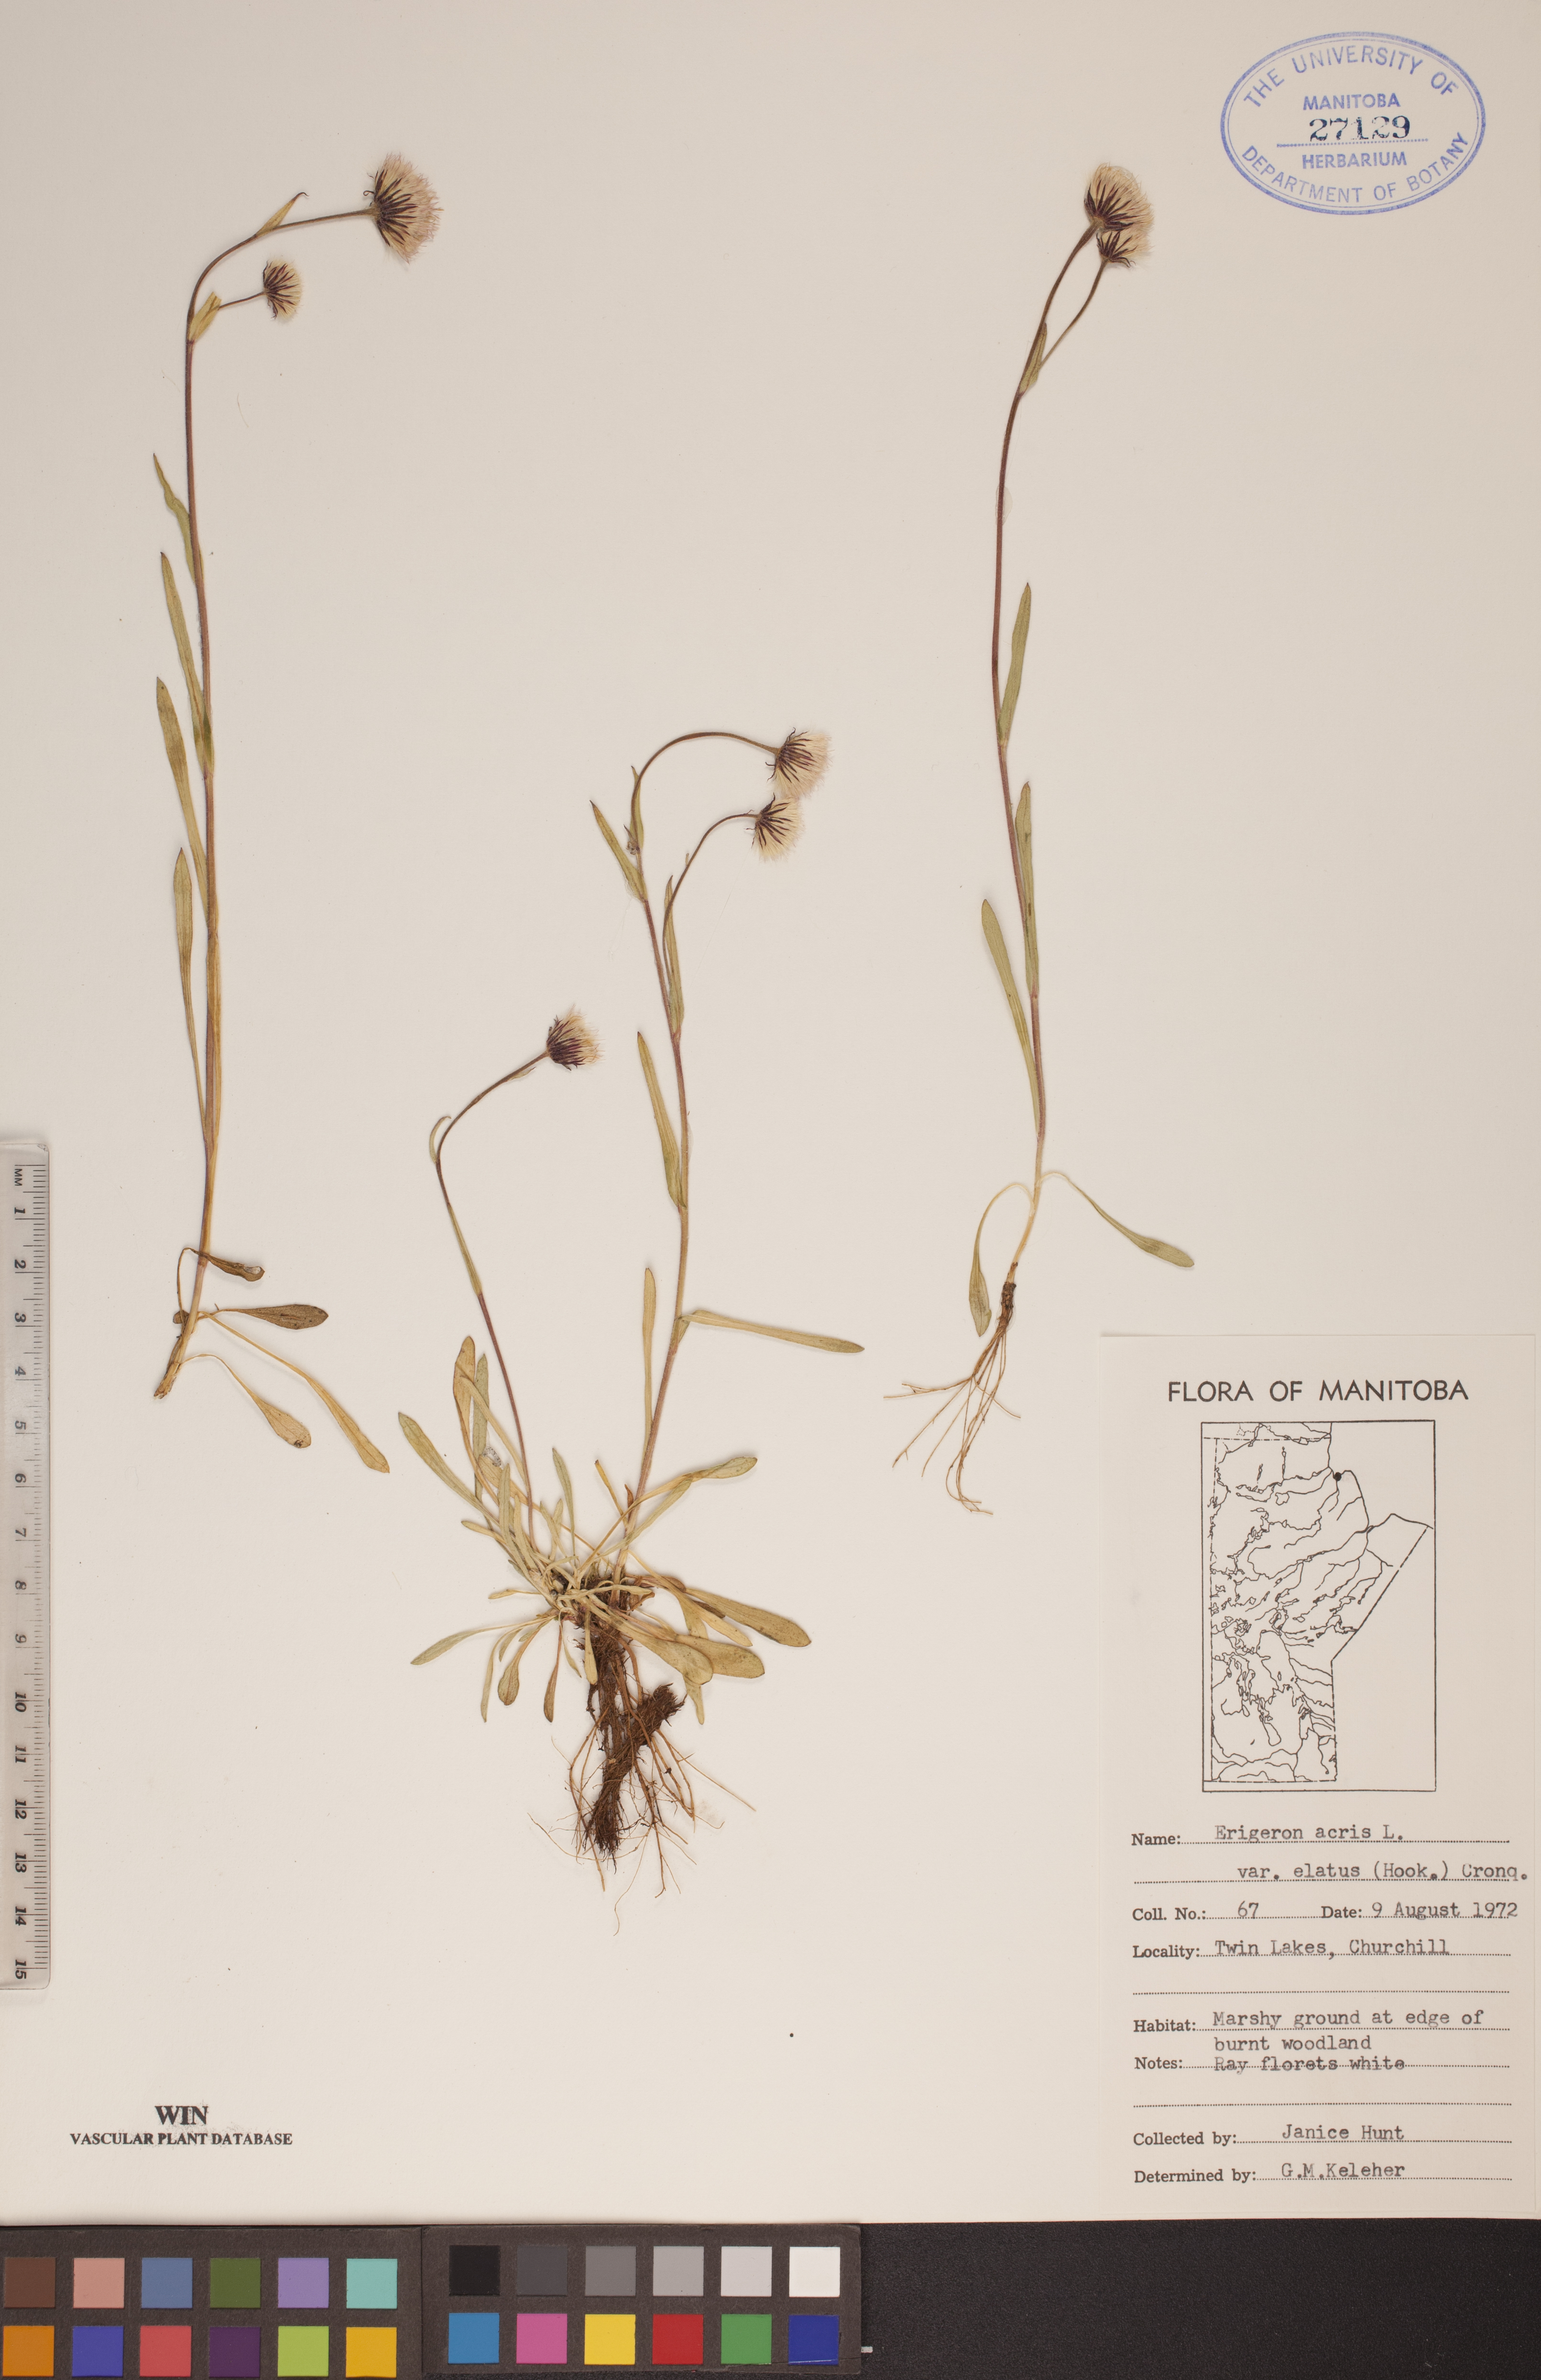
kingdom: Plantae
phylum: Tracheophyta
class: Magnoliopsida
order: Asterales
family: Asteraceae
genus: Erigeron
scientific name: Erigeron elatus
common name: Swamp fleabane
